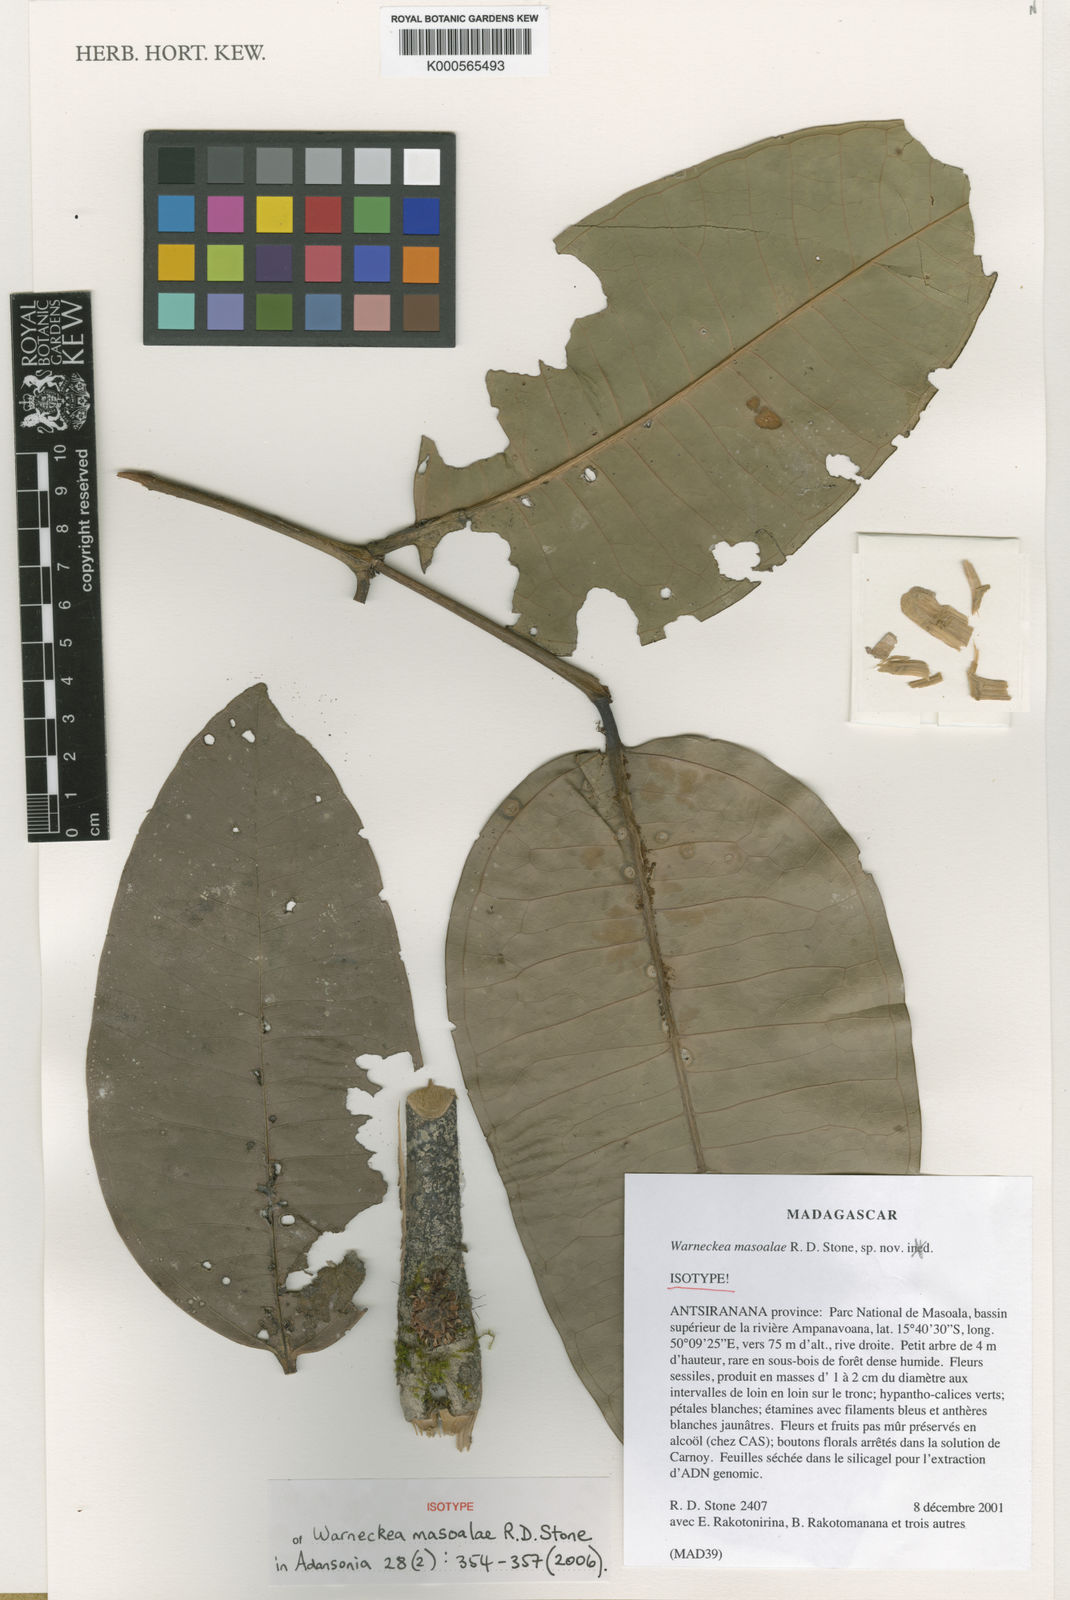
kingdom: Plantae
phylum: Tracheophyta
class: Magnoliopsida
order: Myrtales
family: Melastomataceae
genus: Warneckea
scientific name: Warneckea masoalae
